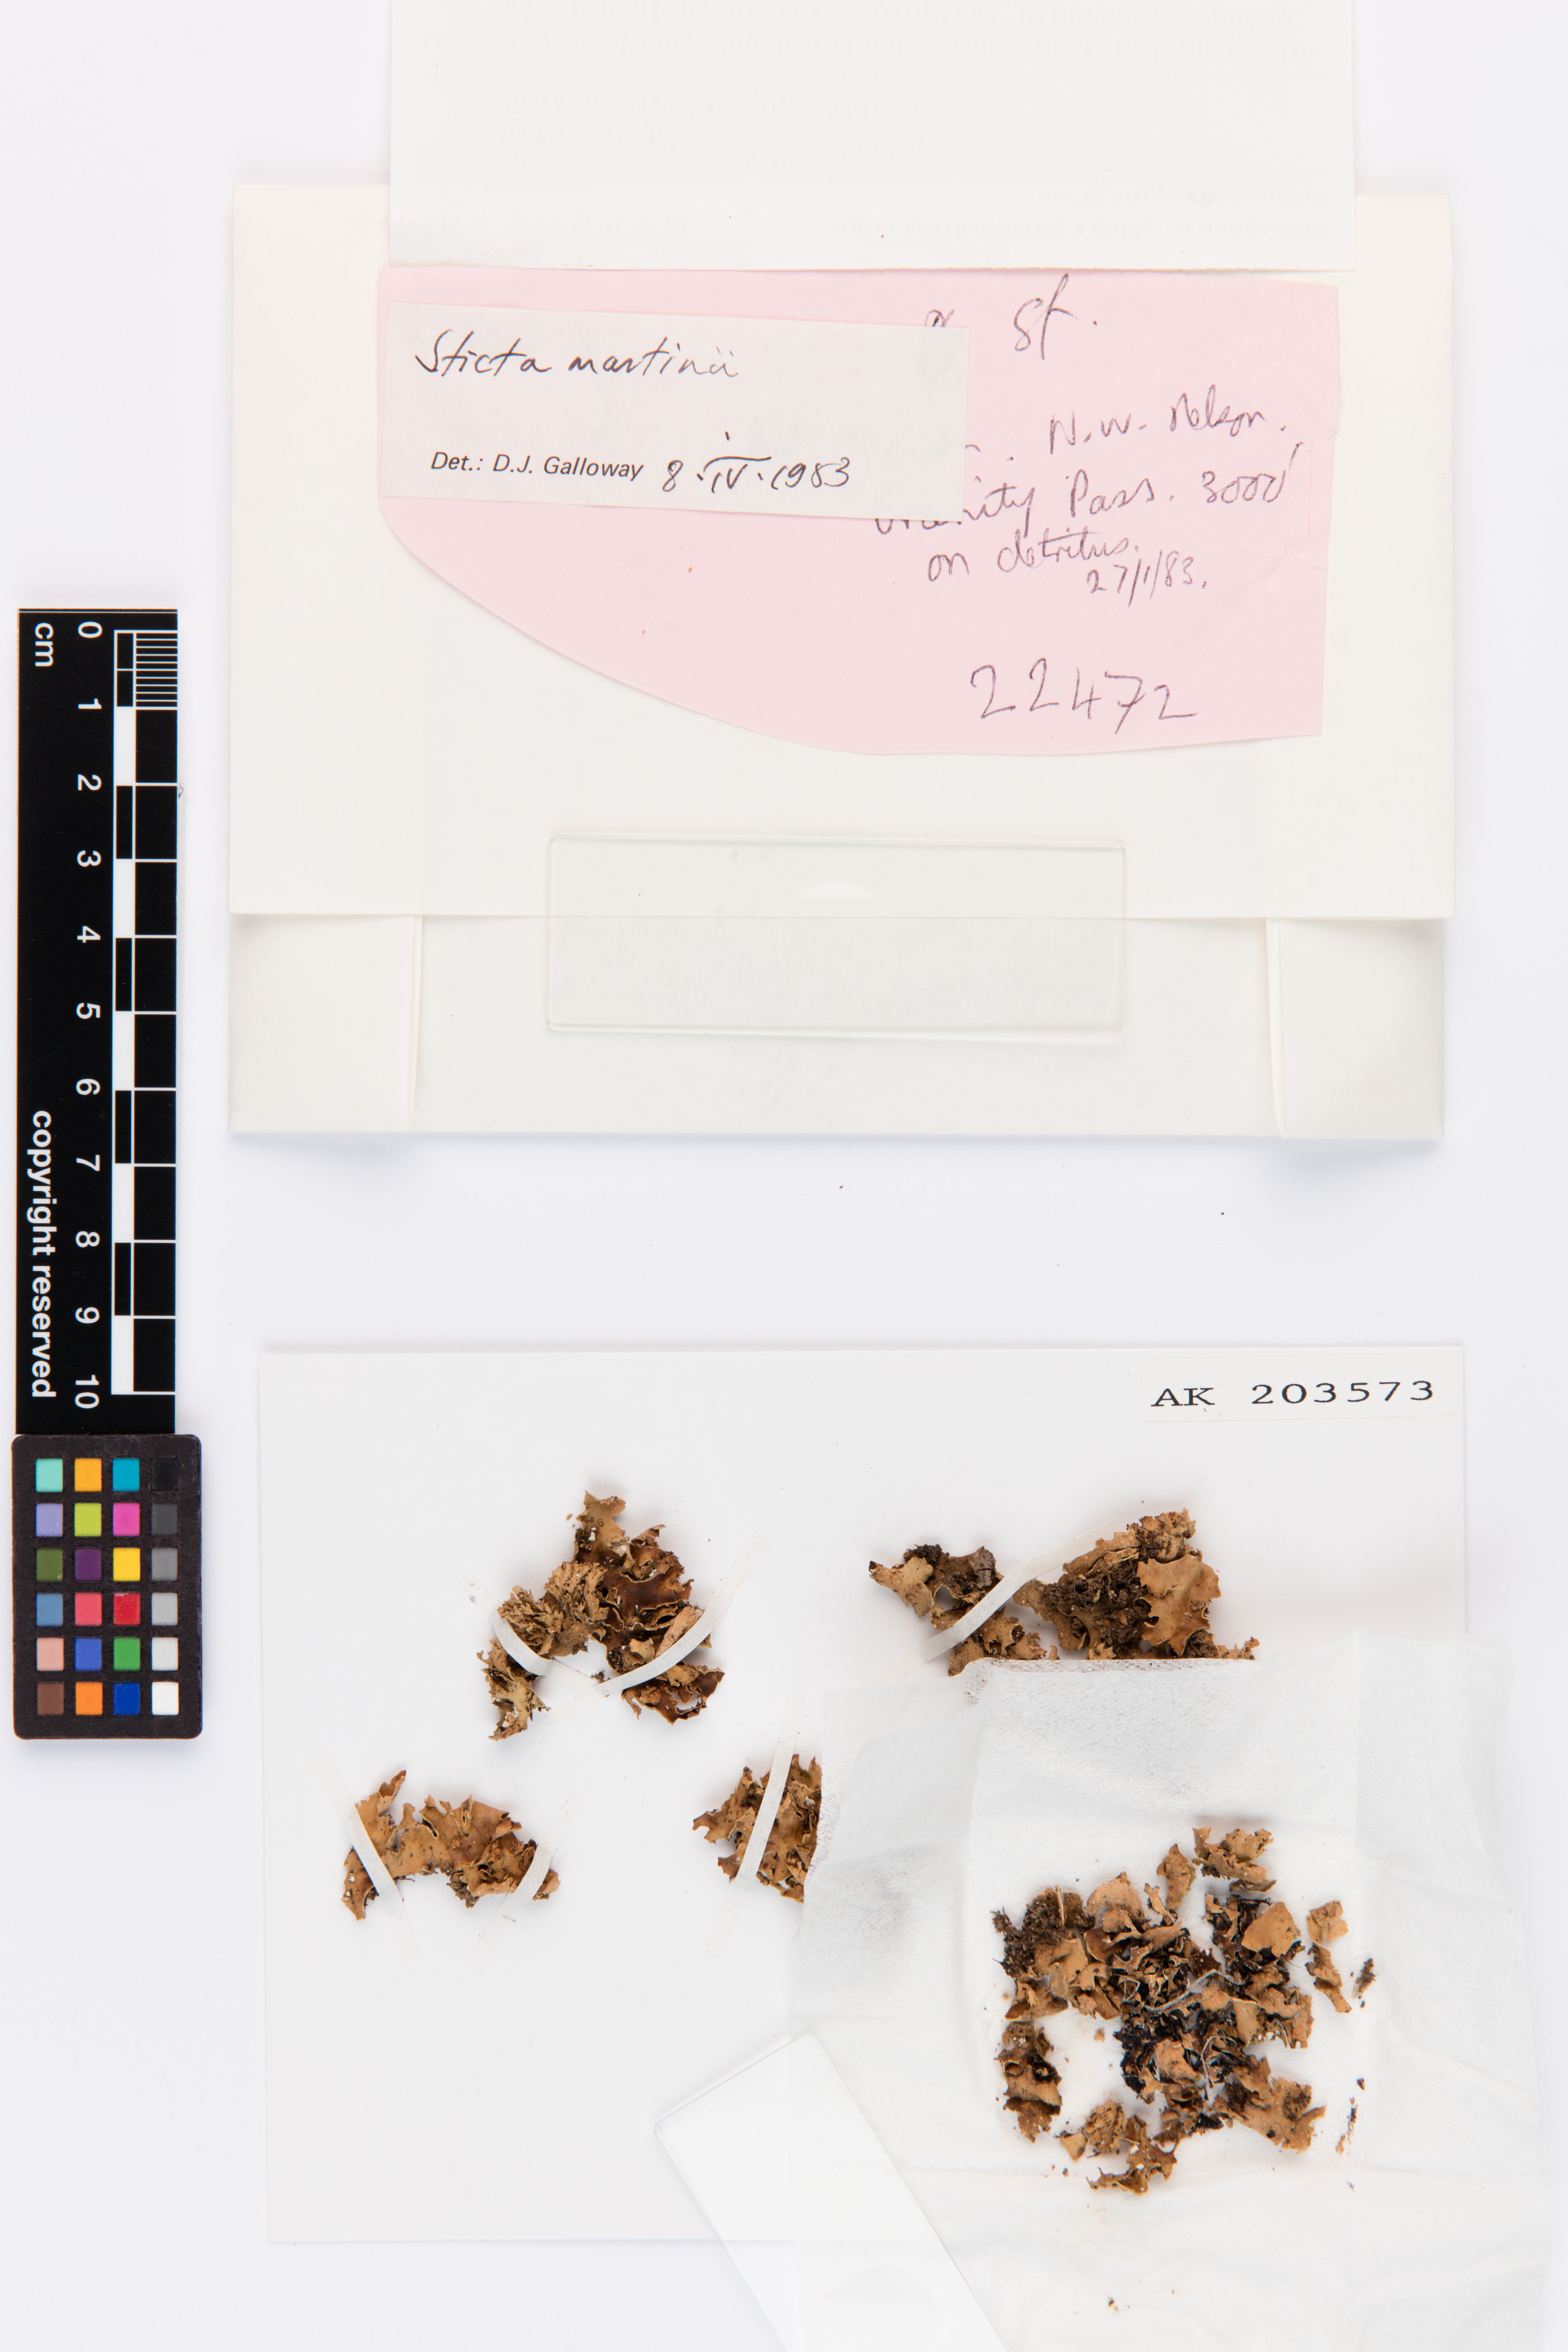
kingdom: Fungi
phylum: Ascomycota
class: Lecanoromycetes
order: Peltigerales
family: Lobariaceae
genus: Sticta
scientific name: Sticta martinii
